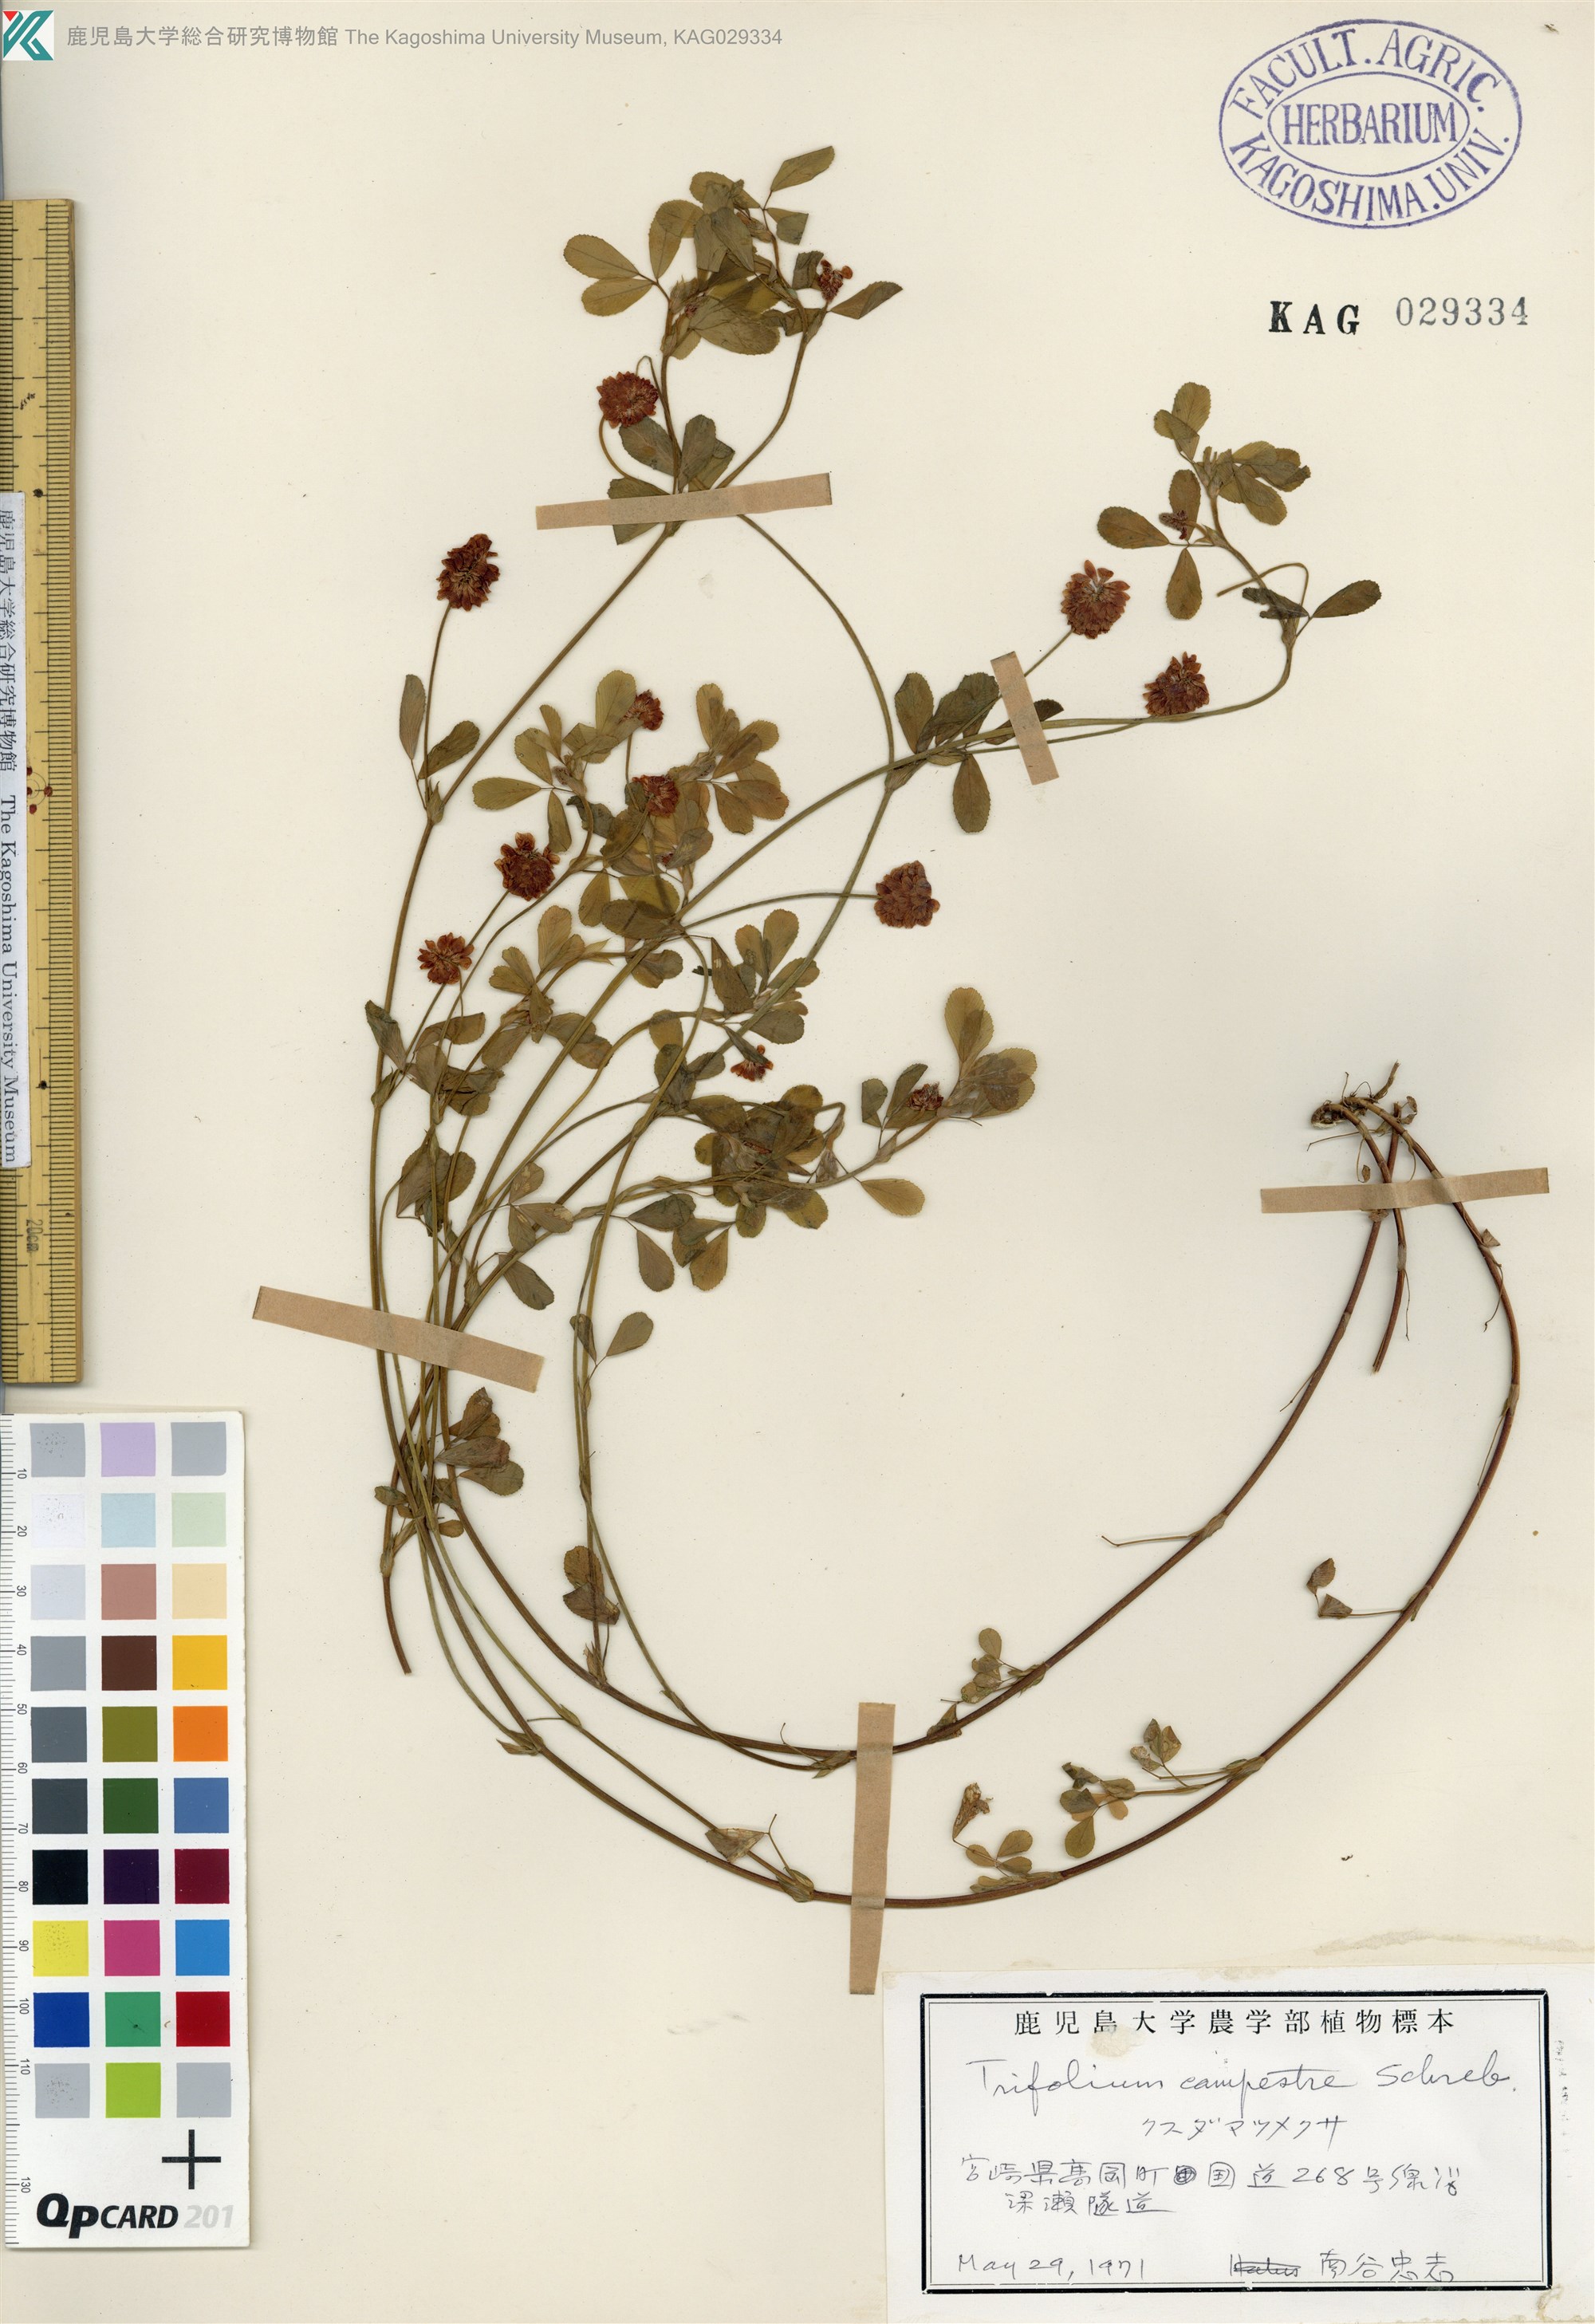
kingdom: Plantae
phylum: Tracheophyta
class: Magnoliopsida
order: Fabales
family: Fabaceae
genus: Trifolium
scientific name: Trifolium campestre
